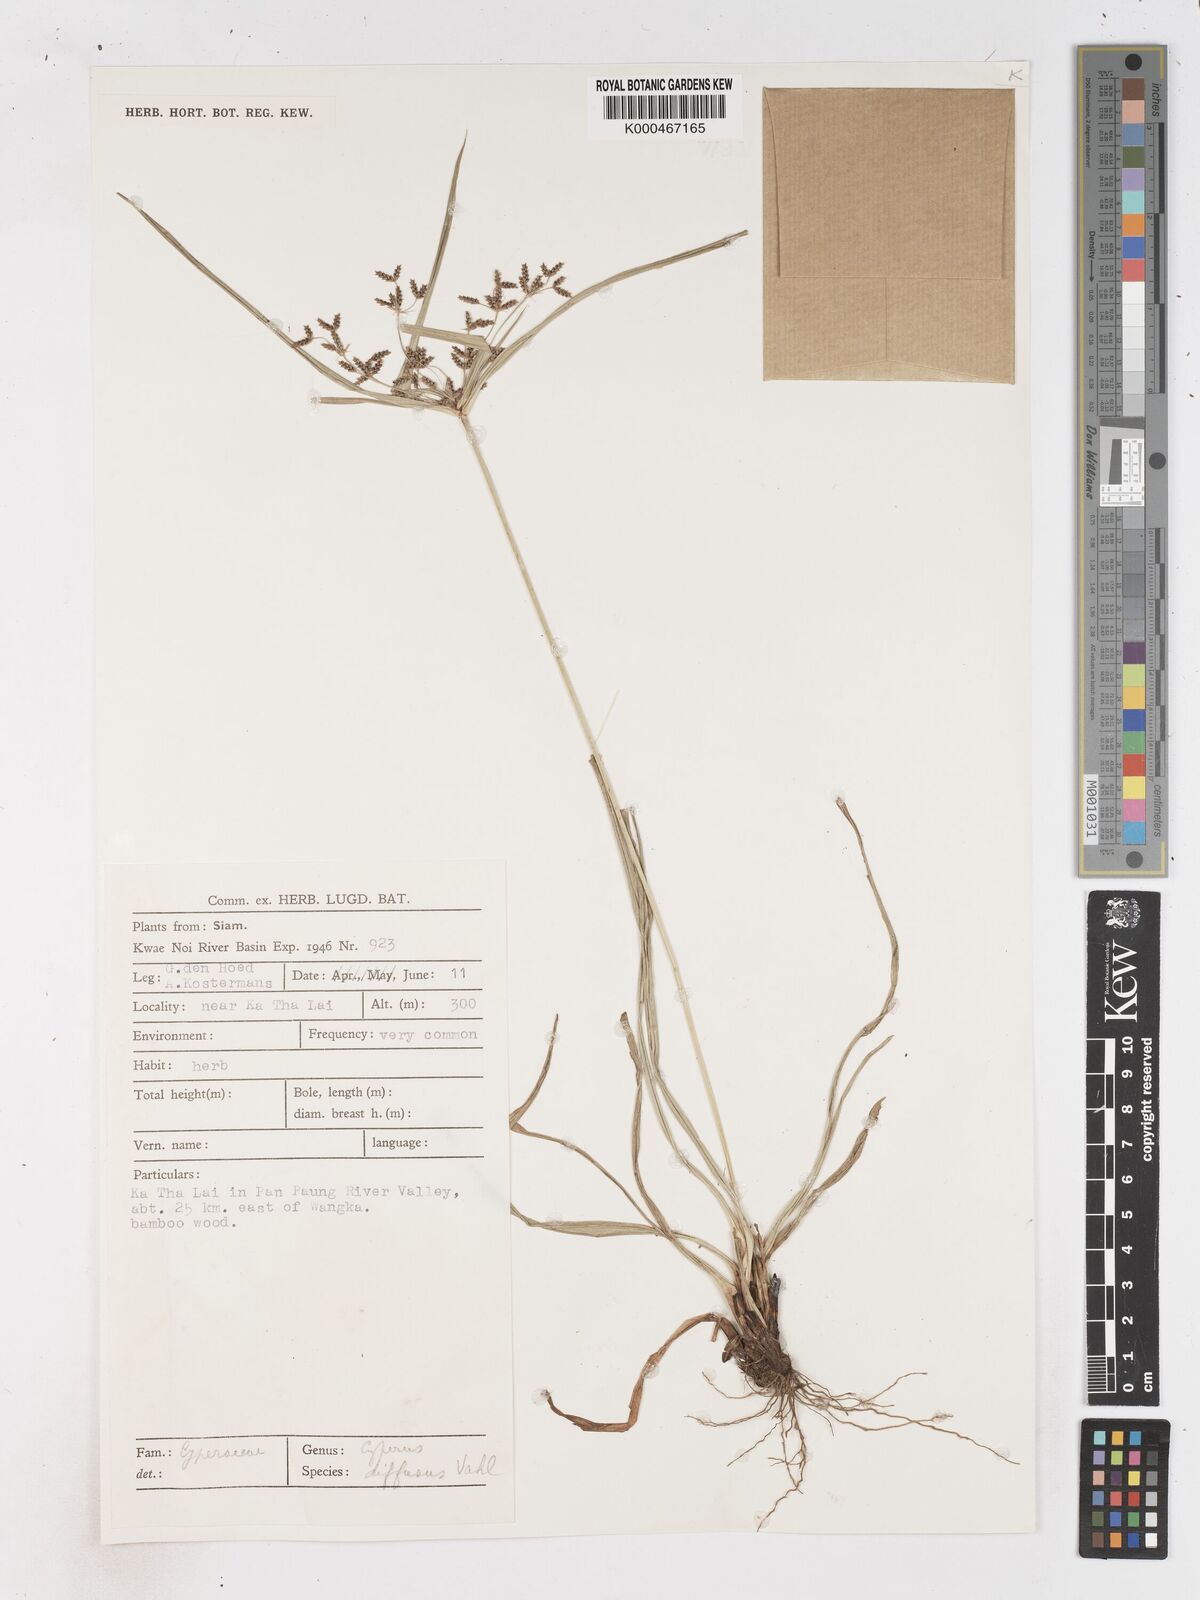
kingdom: Plantae
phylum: Tracheophyta
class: Liliopsida
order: Poales
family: Cyperaceae
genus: Cyperus
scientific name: Cyperus diffusus
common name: Dwarf umbrella grass
